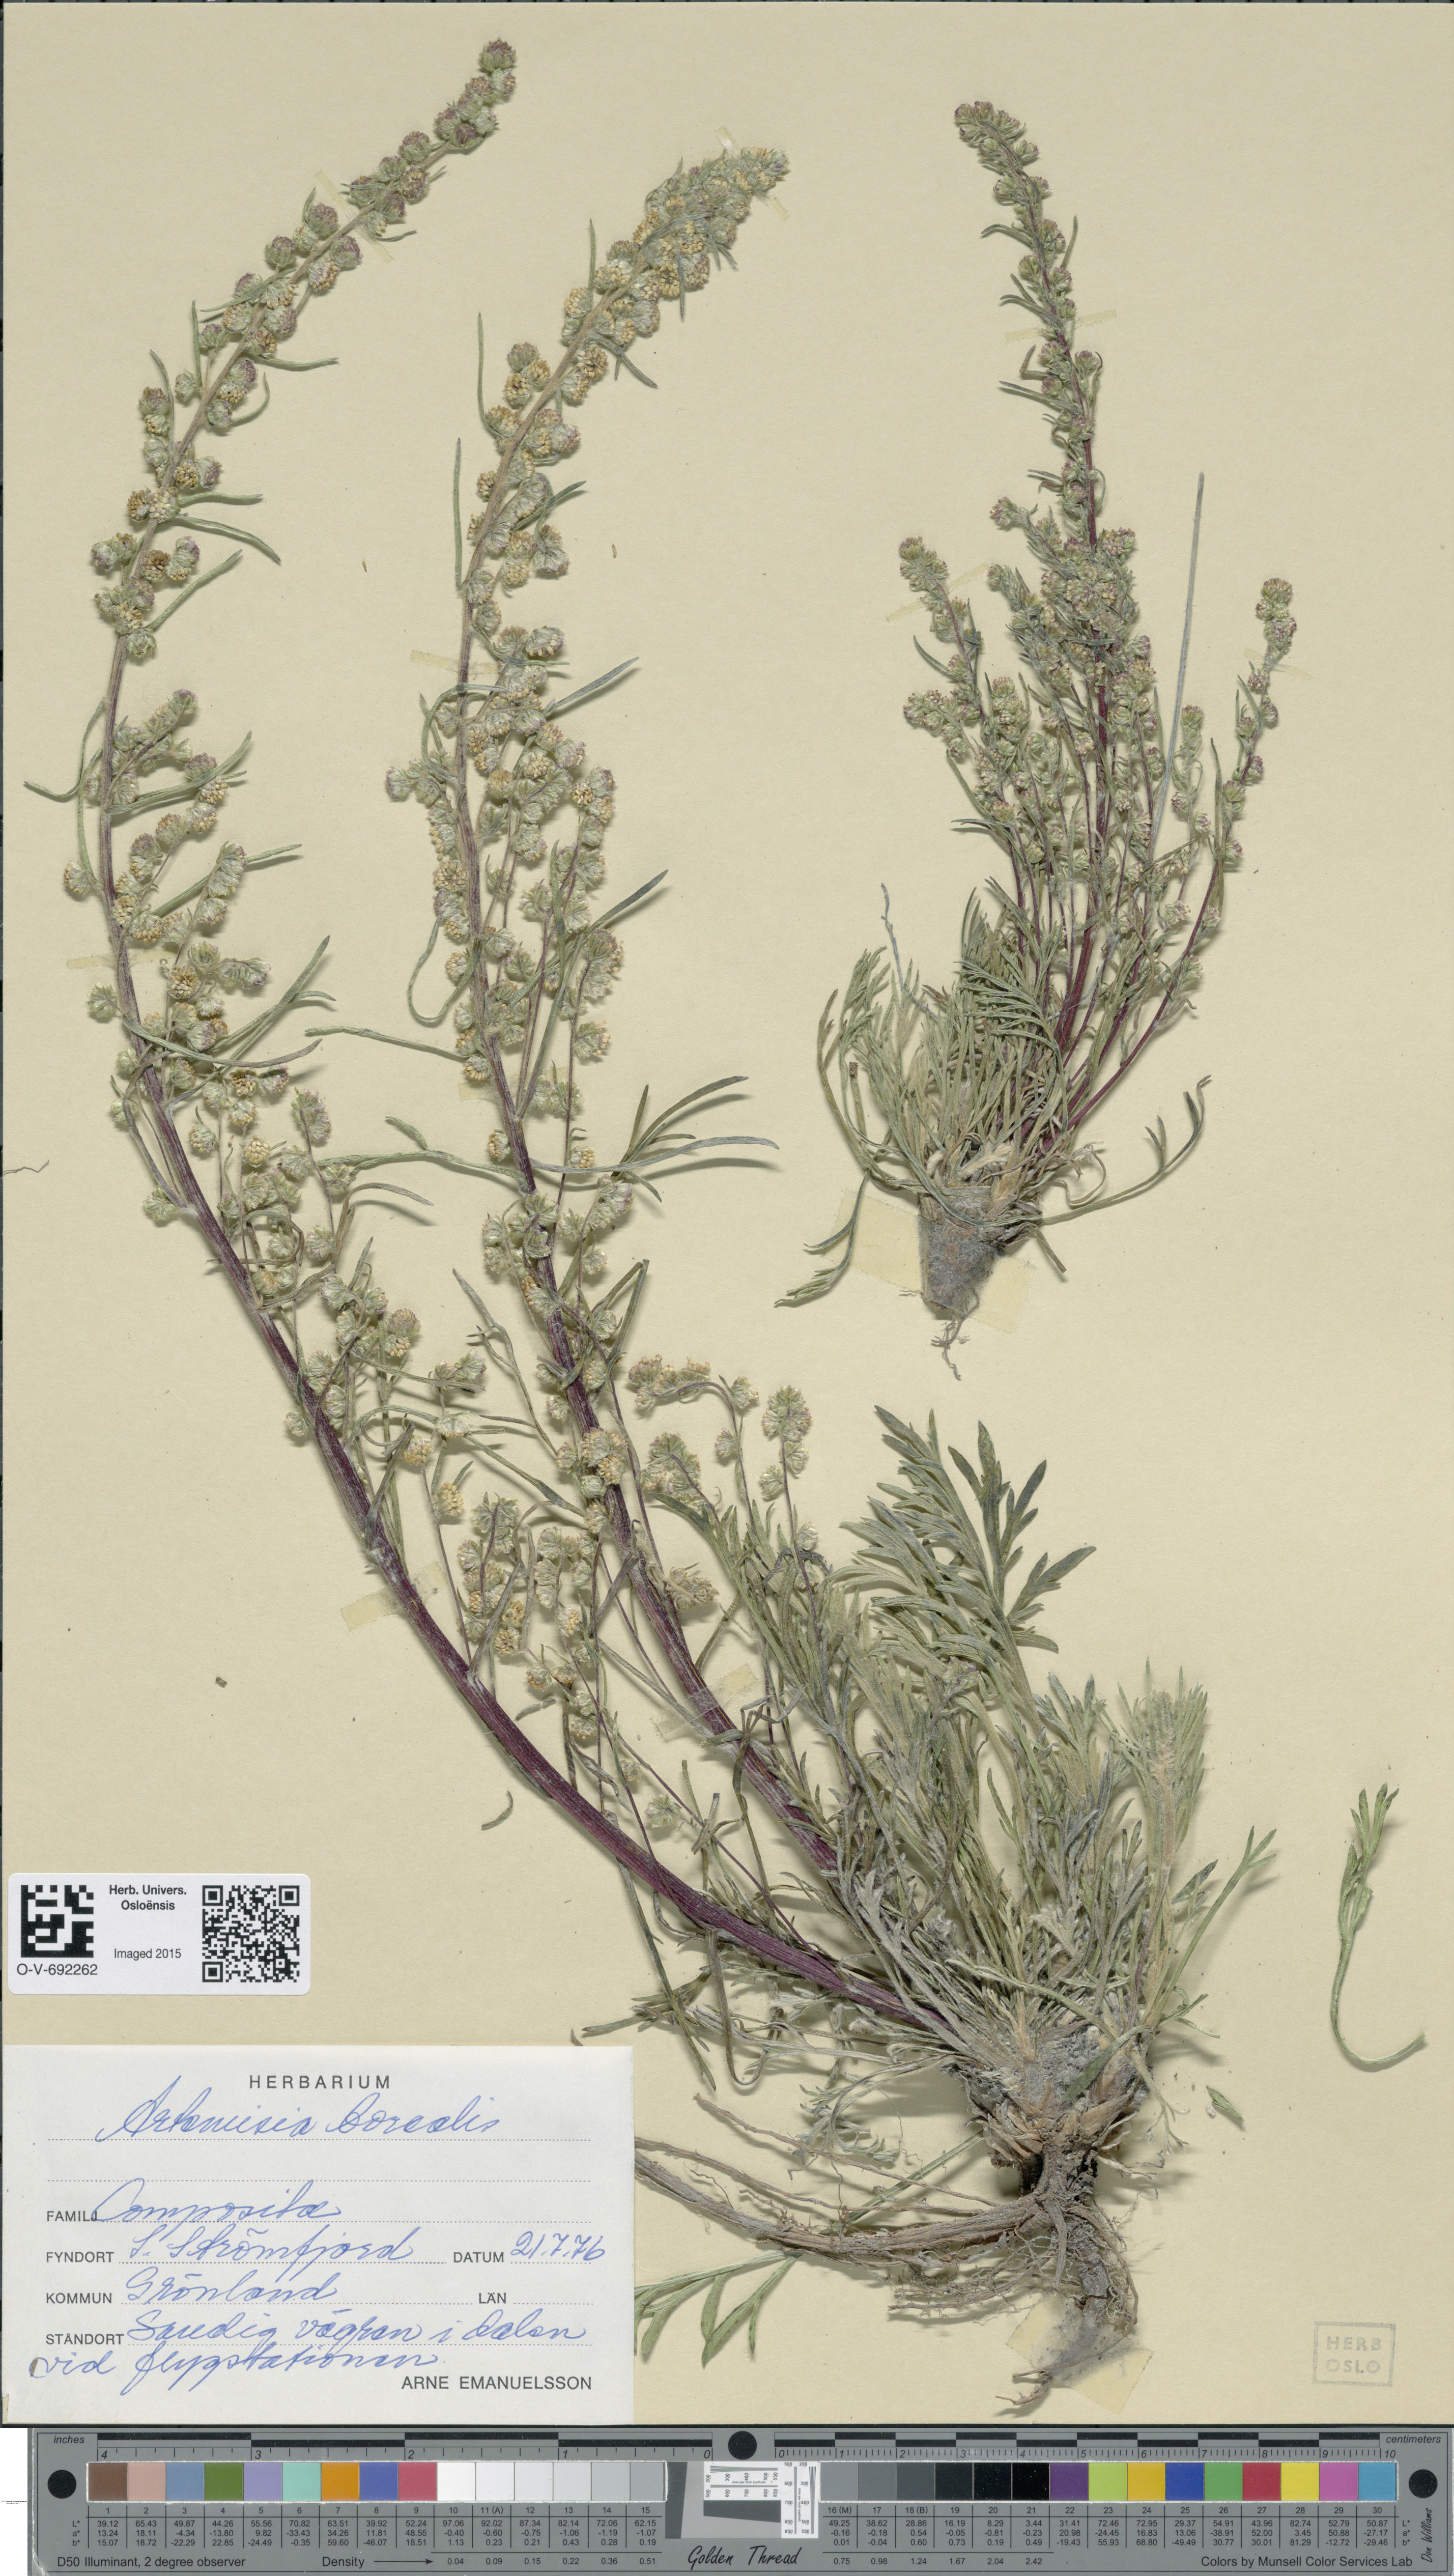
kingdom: Plantae
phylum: Tracheophyta
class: Magnoliopsida
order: Asterales
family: Asteraceae
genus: Artemisia
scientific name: Artemisia borealis
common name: Boreal sage
